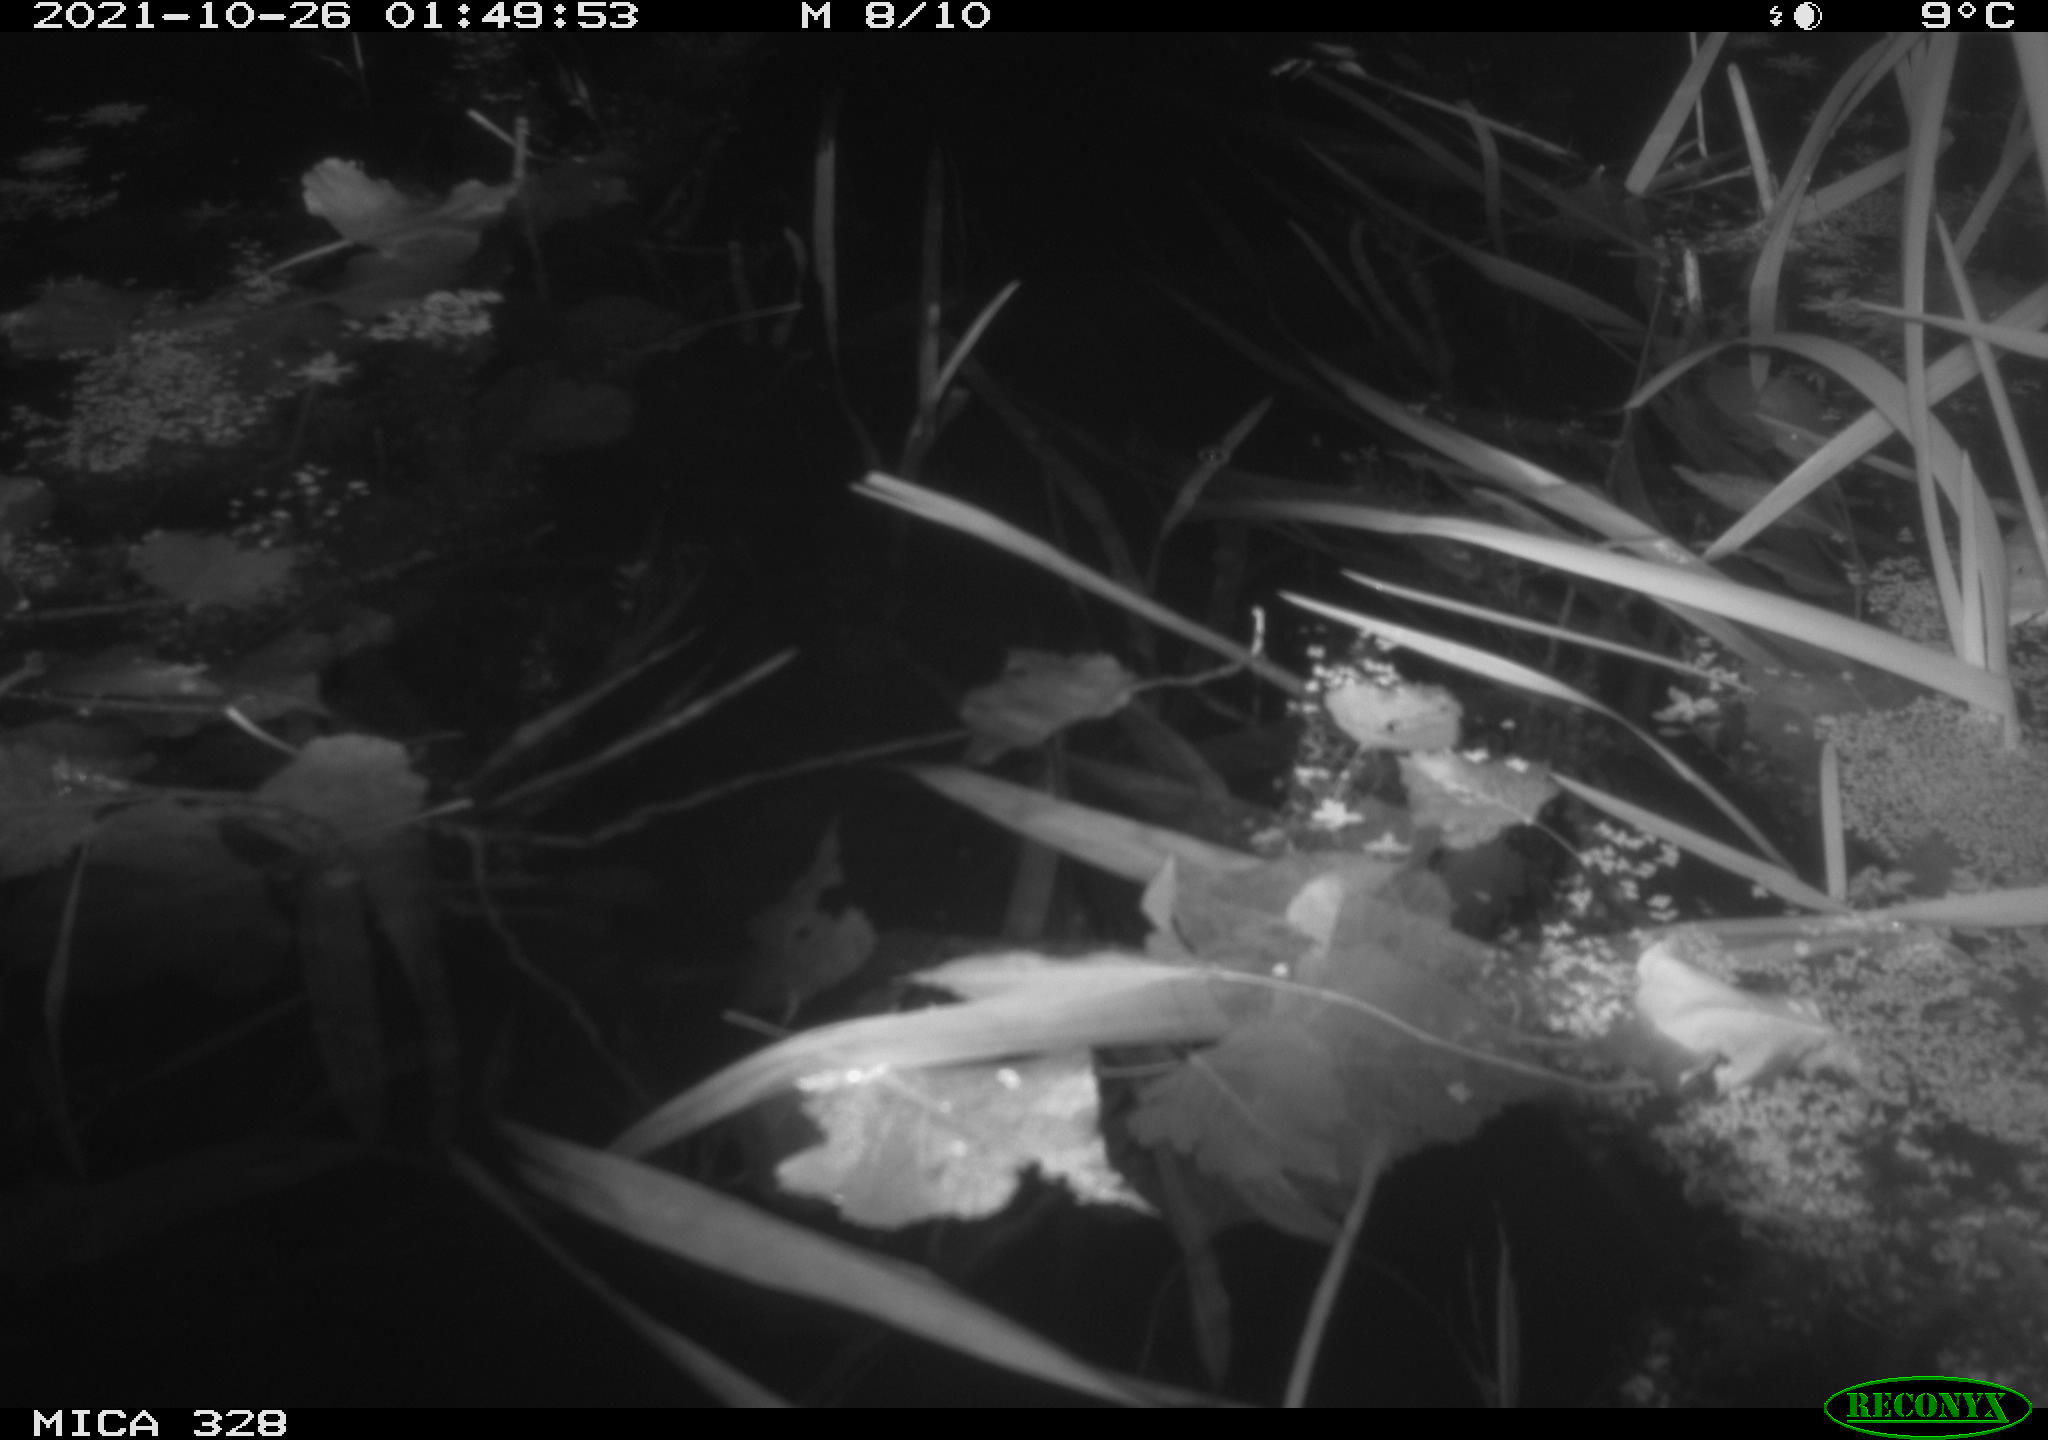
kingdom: Animalia
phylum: Chordata
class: Mammalia
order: Rodentia
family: Cricetidae
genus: Ondatra
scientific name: Ondatra zibethicus
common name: Muskrat
